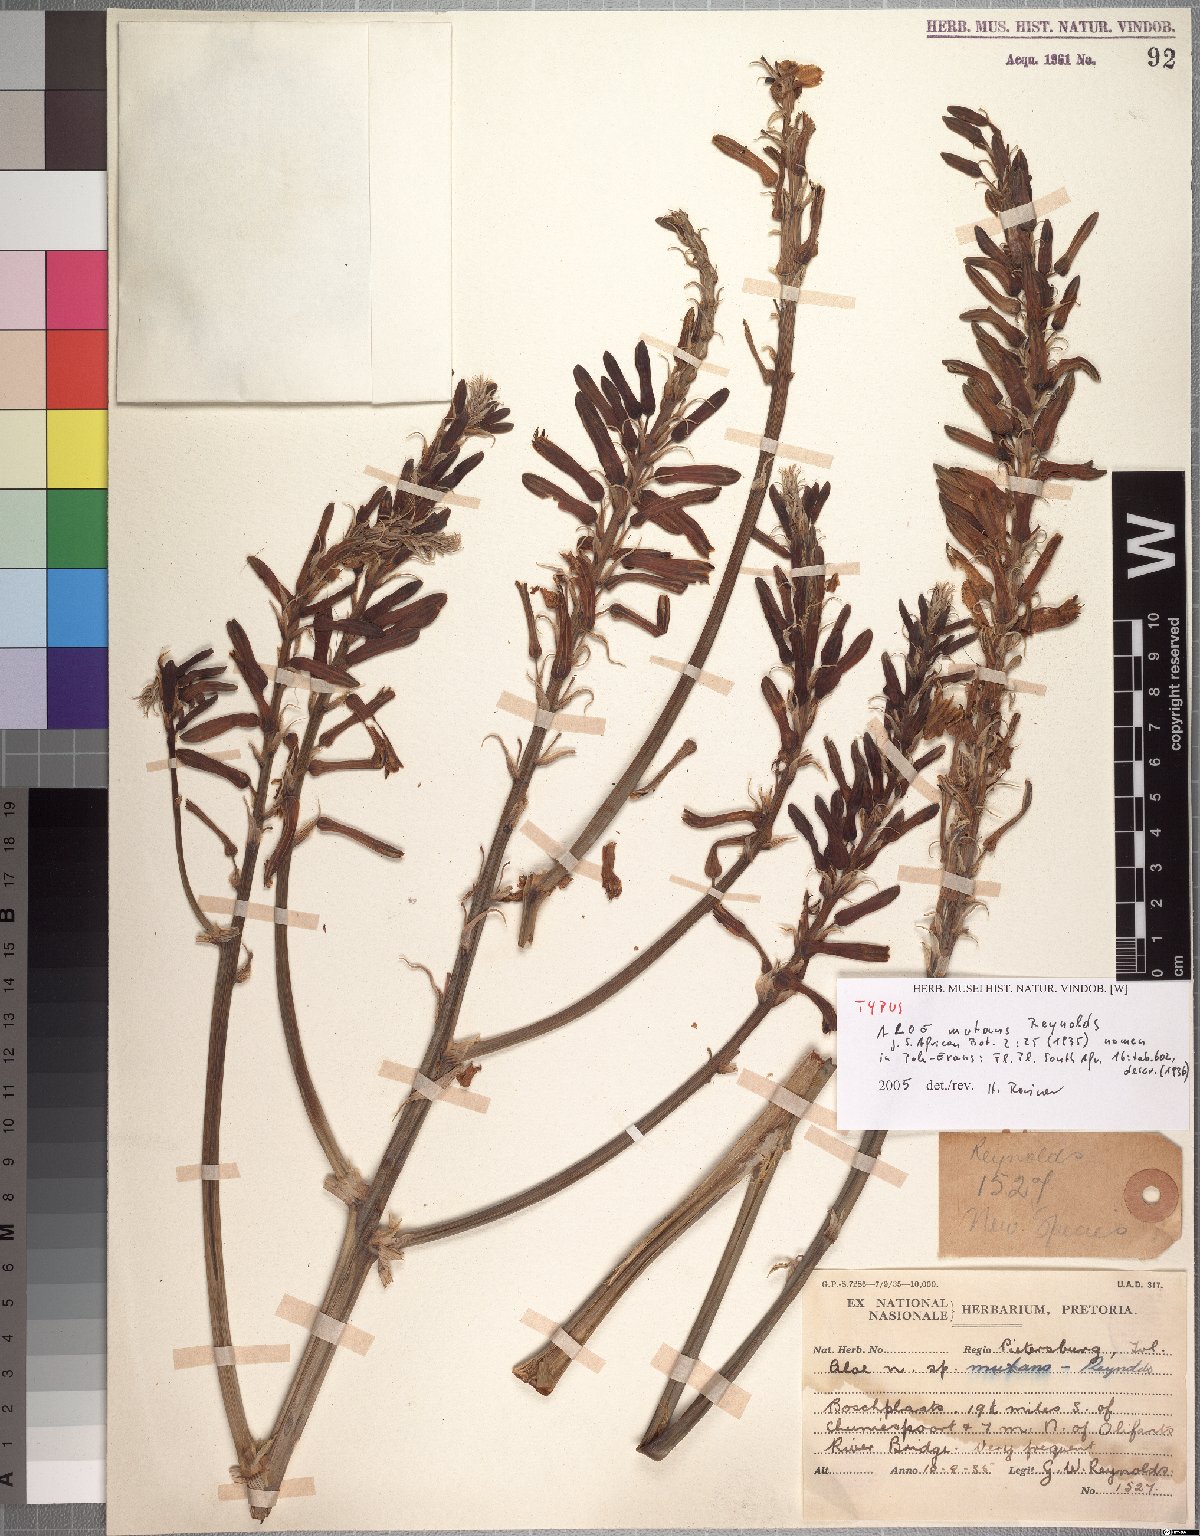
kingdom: Plantae
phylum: Tracheophyta
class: Liliopsida
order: Asparagales
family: Asphodelaceae
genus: Aloe
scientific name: Aloe davyana
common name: Spotted aloe
